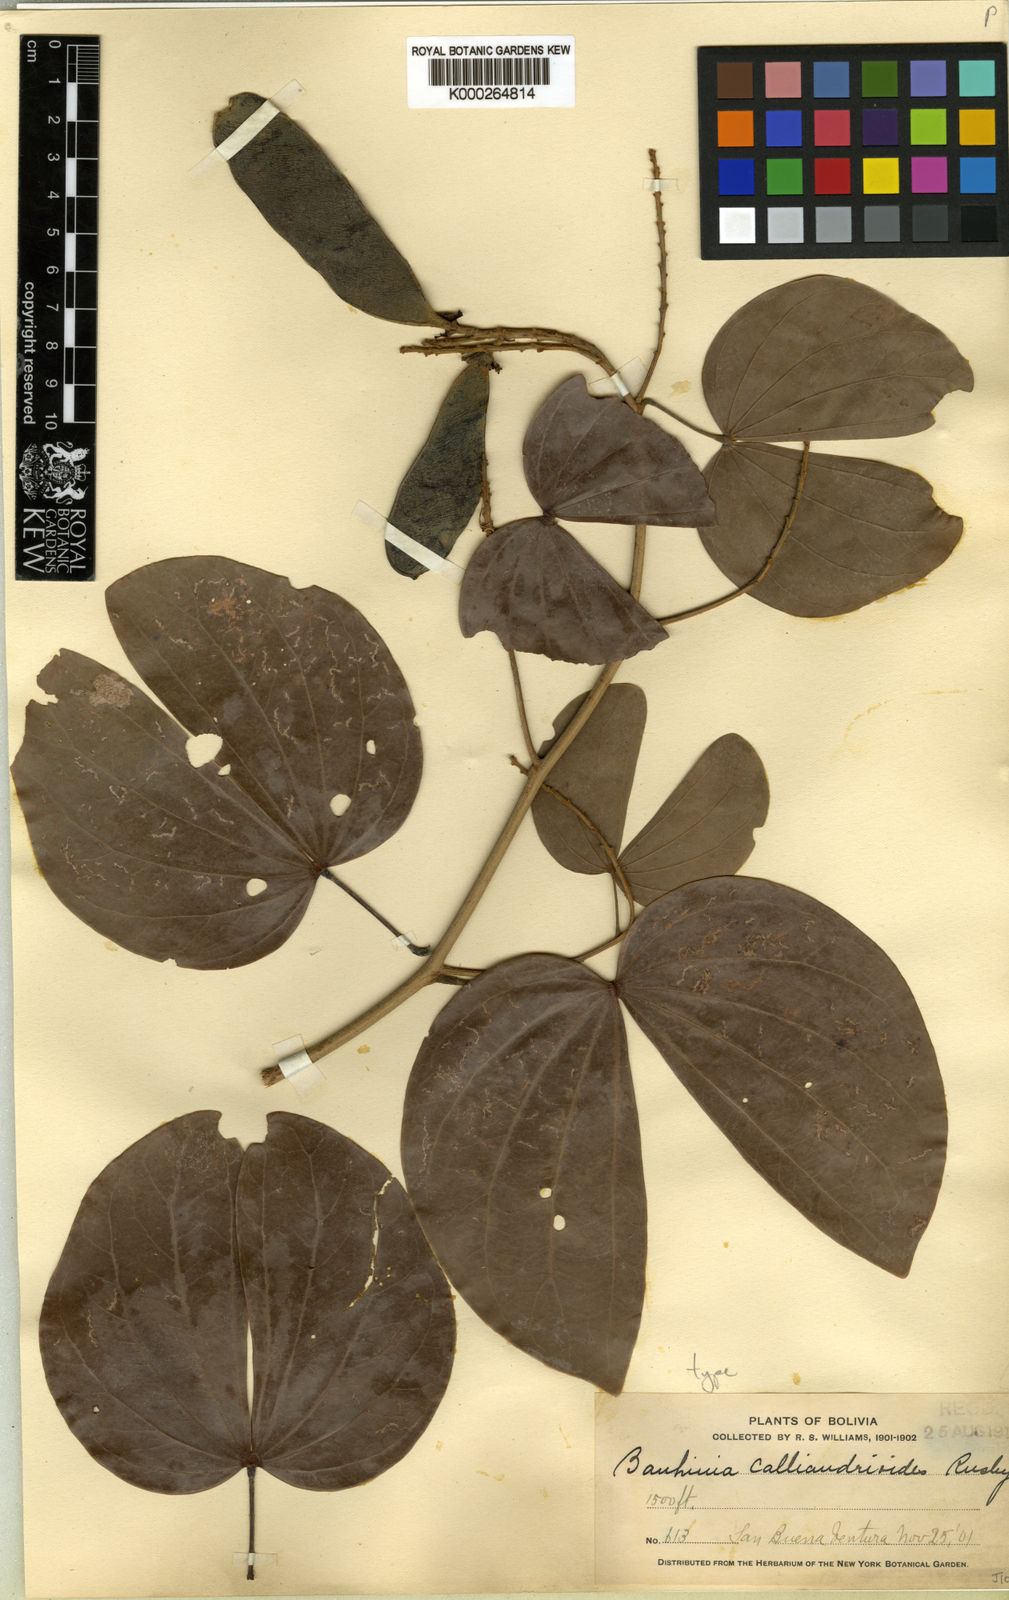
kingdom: Plantae
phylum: Tracheophyta
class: Magnoliopsida
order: Fabales
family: Fabaceae
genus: Bauhinia
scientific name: Bauhinia calliandroides
